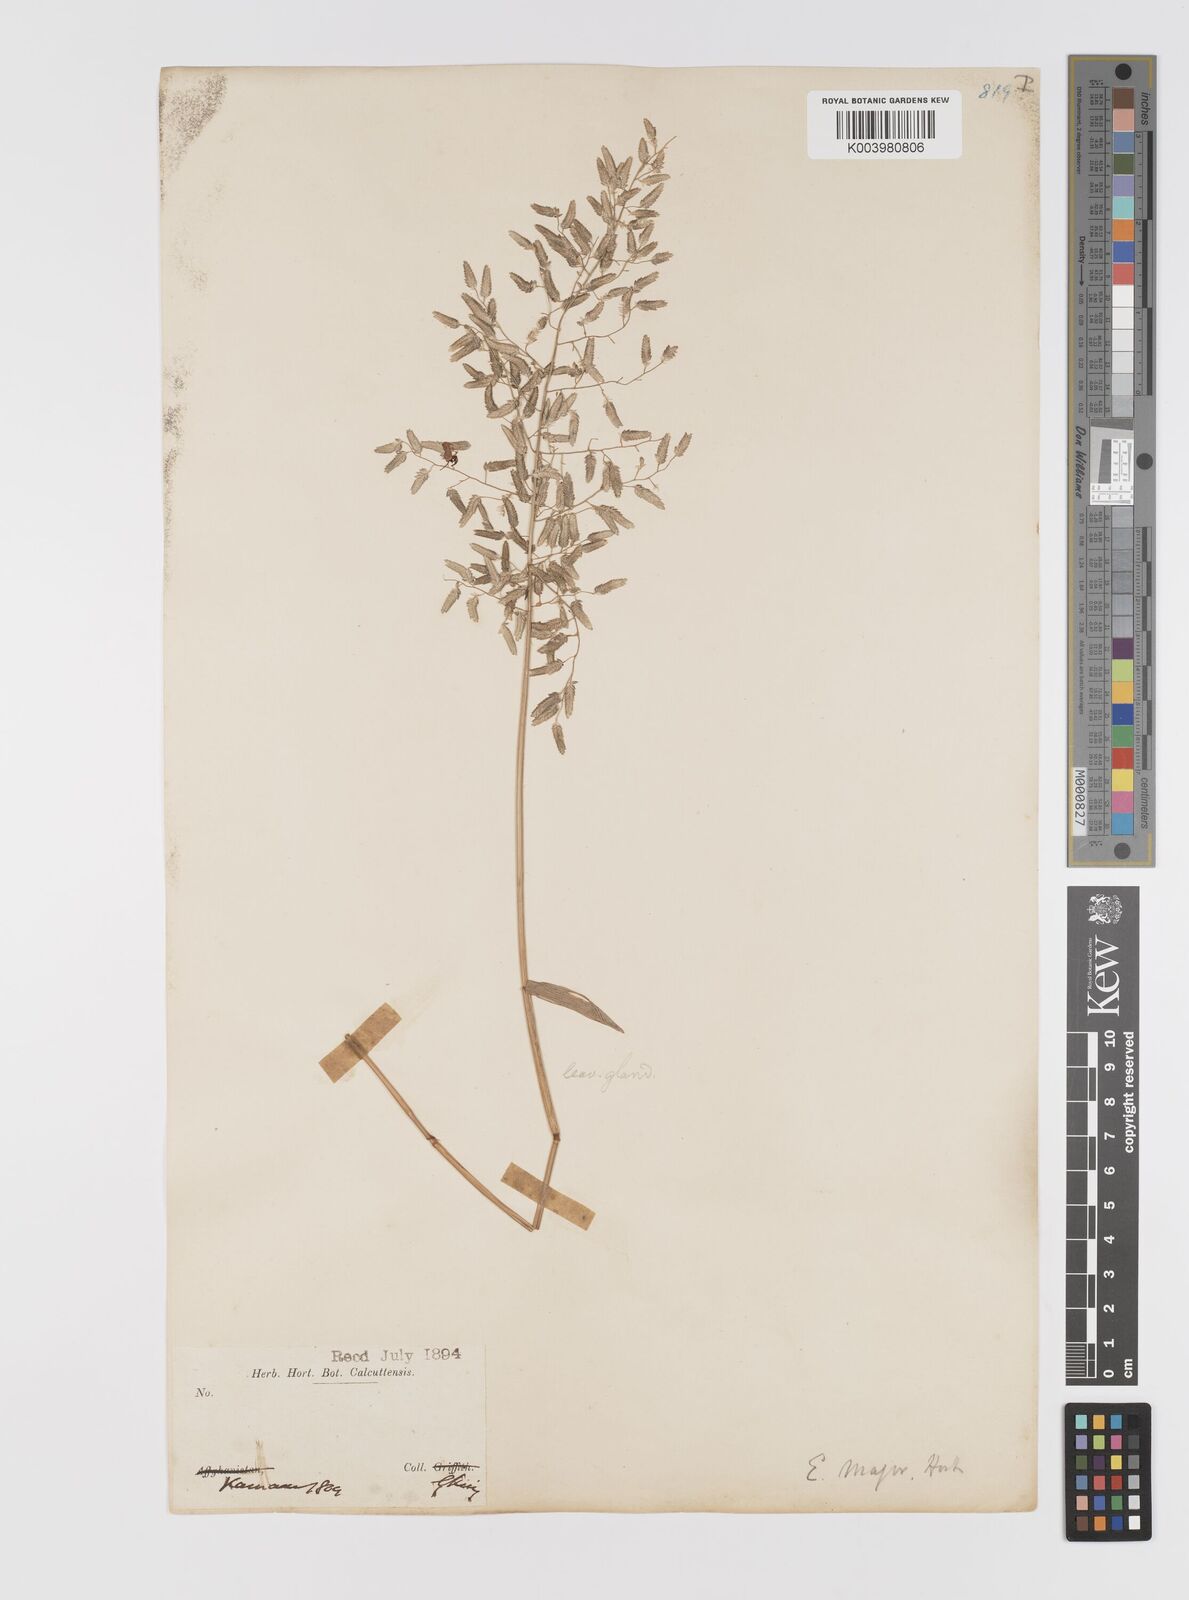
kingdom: Plantae
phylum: Tracheophyta
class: Liliopsida
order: Poales
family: Poaceae
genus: Eragrostis
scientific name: Eragrostis cilianensis
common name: Stinkgrass
